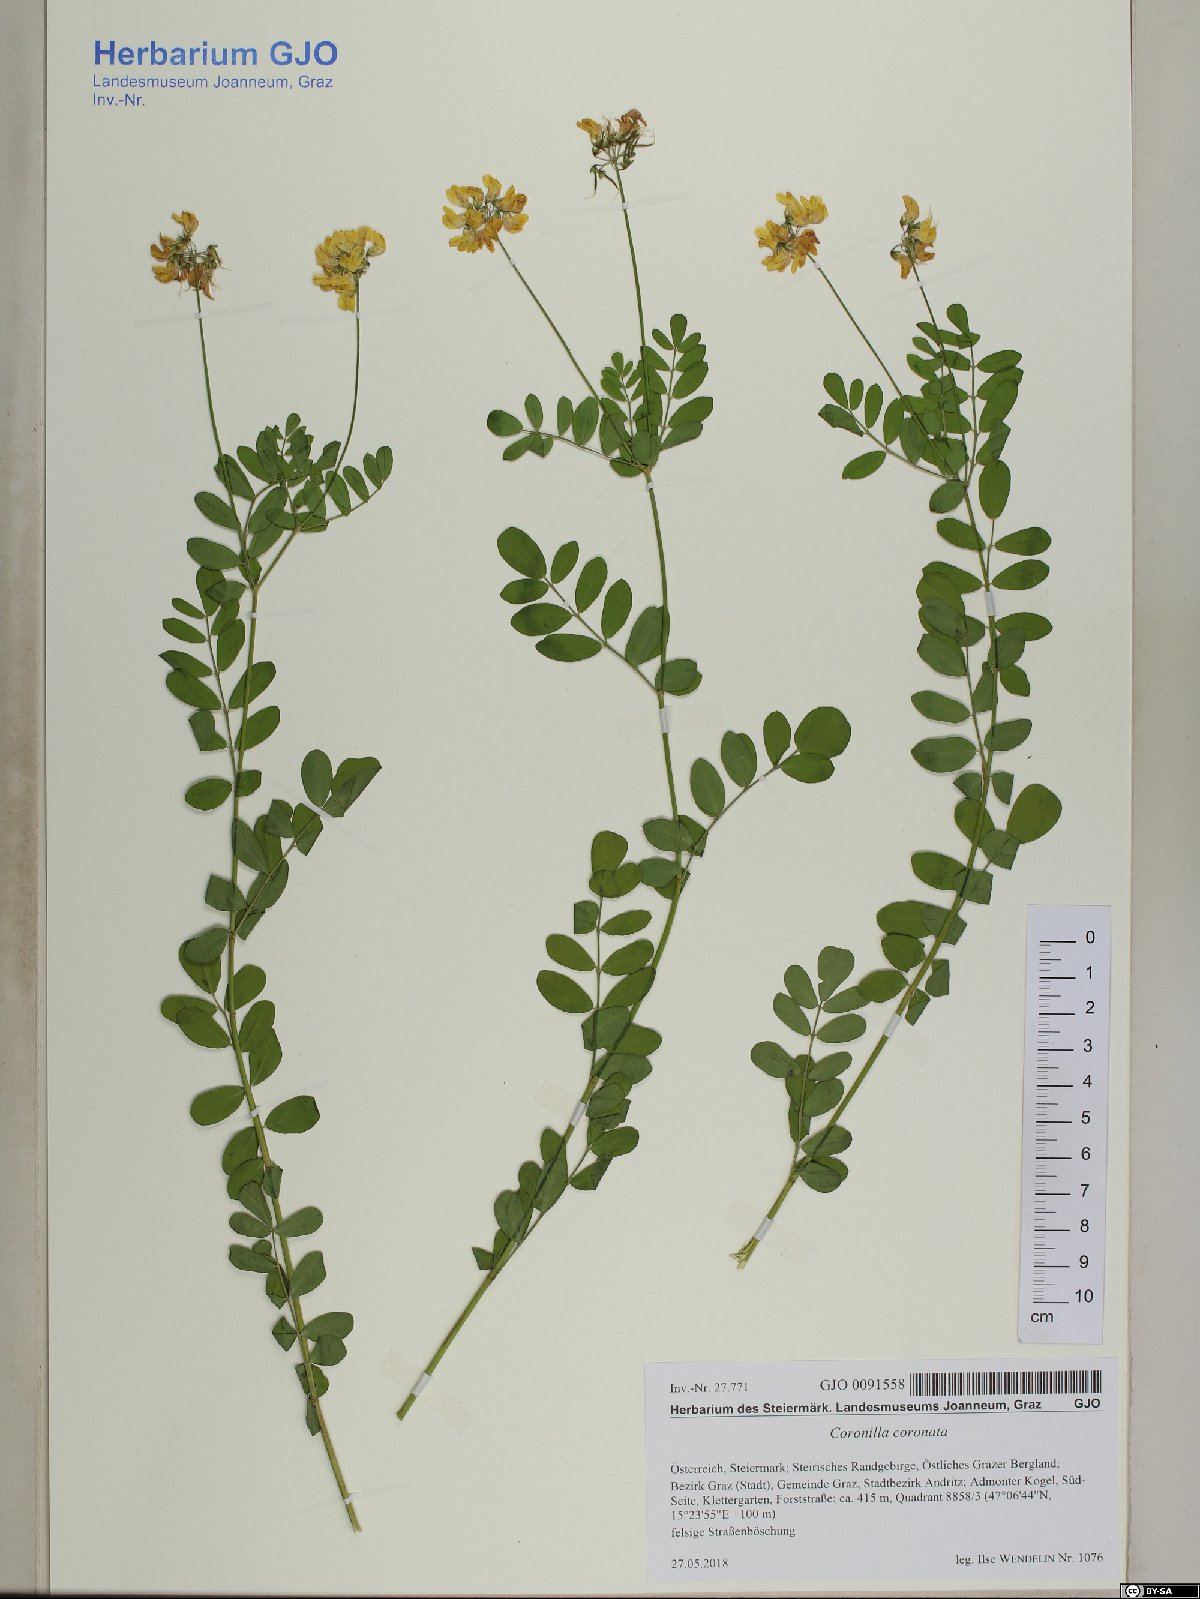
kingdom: Plantae
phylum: Tracheophyta
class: Magnoliopsida
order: Fabales
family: Fabaceae
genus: Coronilla
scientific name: Coronilla coronata
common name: Scorpion-vetch
